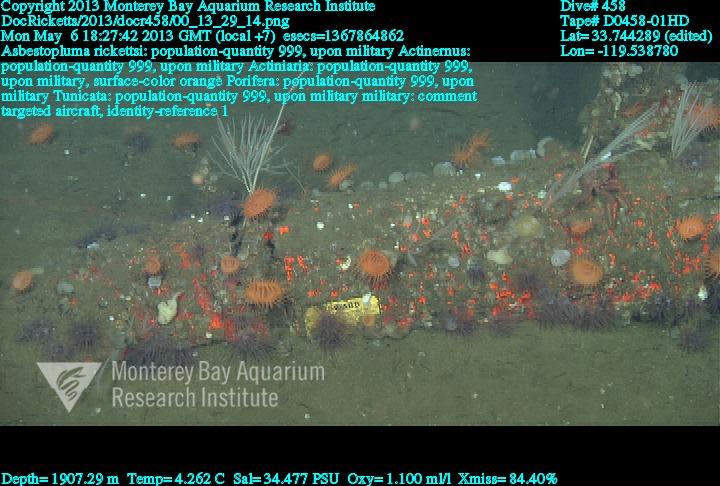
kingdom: Animalia
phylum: Porifera
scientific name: Porifera
